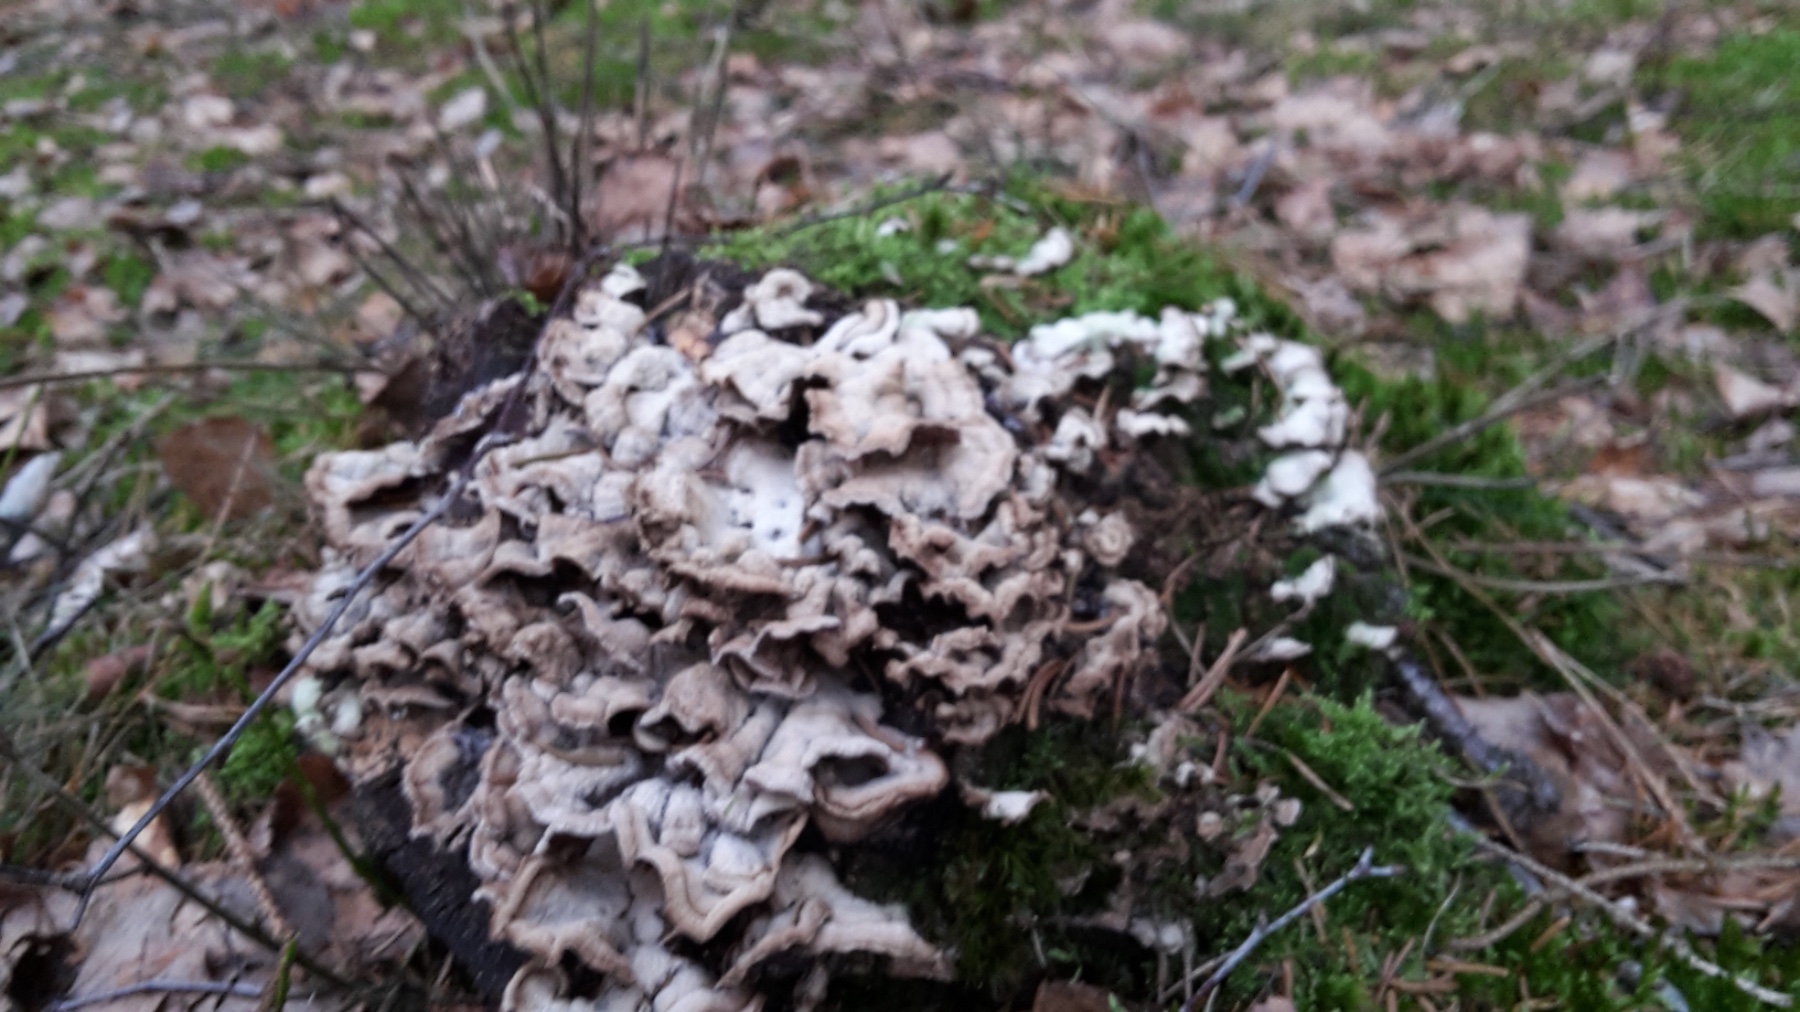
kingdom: Fungi
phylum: Basidiomycota
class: Agaricomycetes
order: Agaricales
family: Cyphellaceae
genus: Chondrostereum
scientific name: Chondrostereum purpureum
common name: purpurlædersvamp
